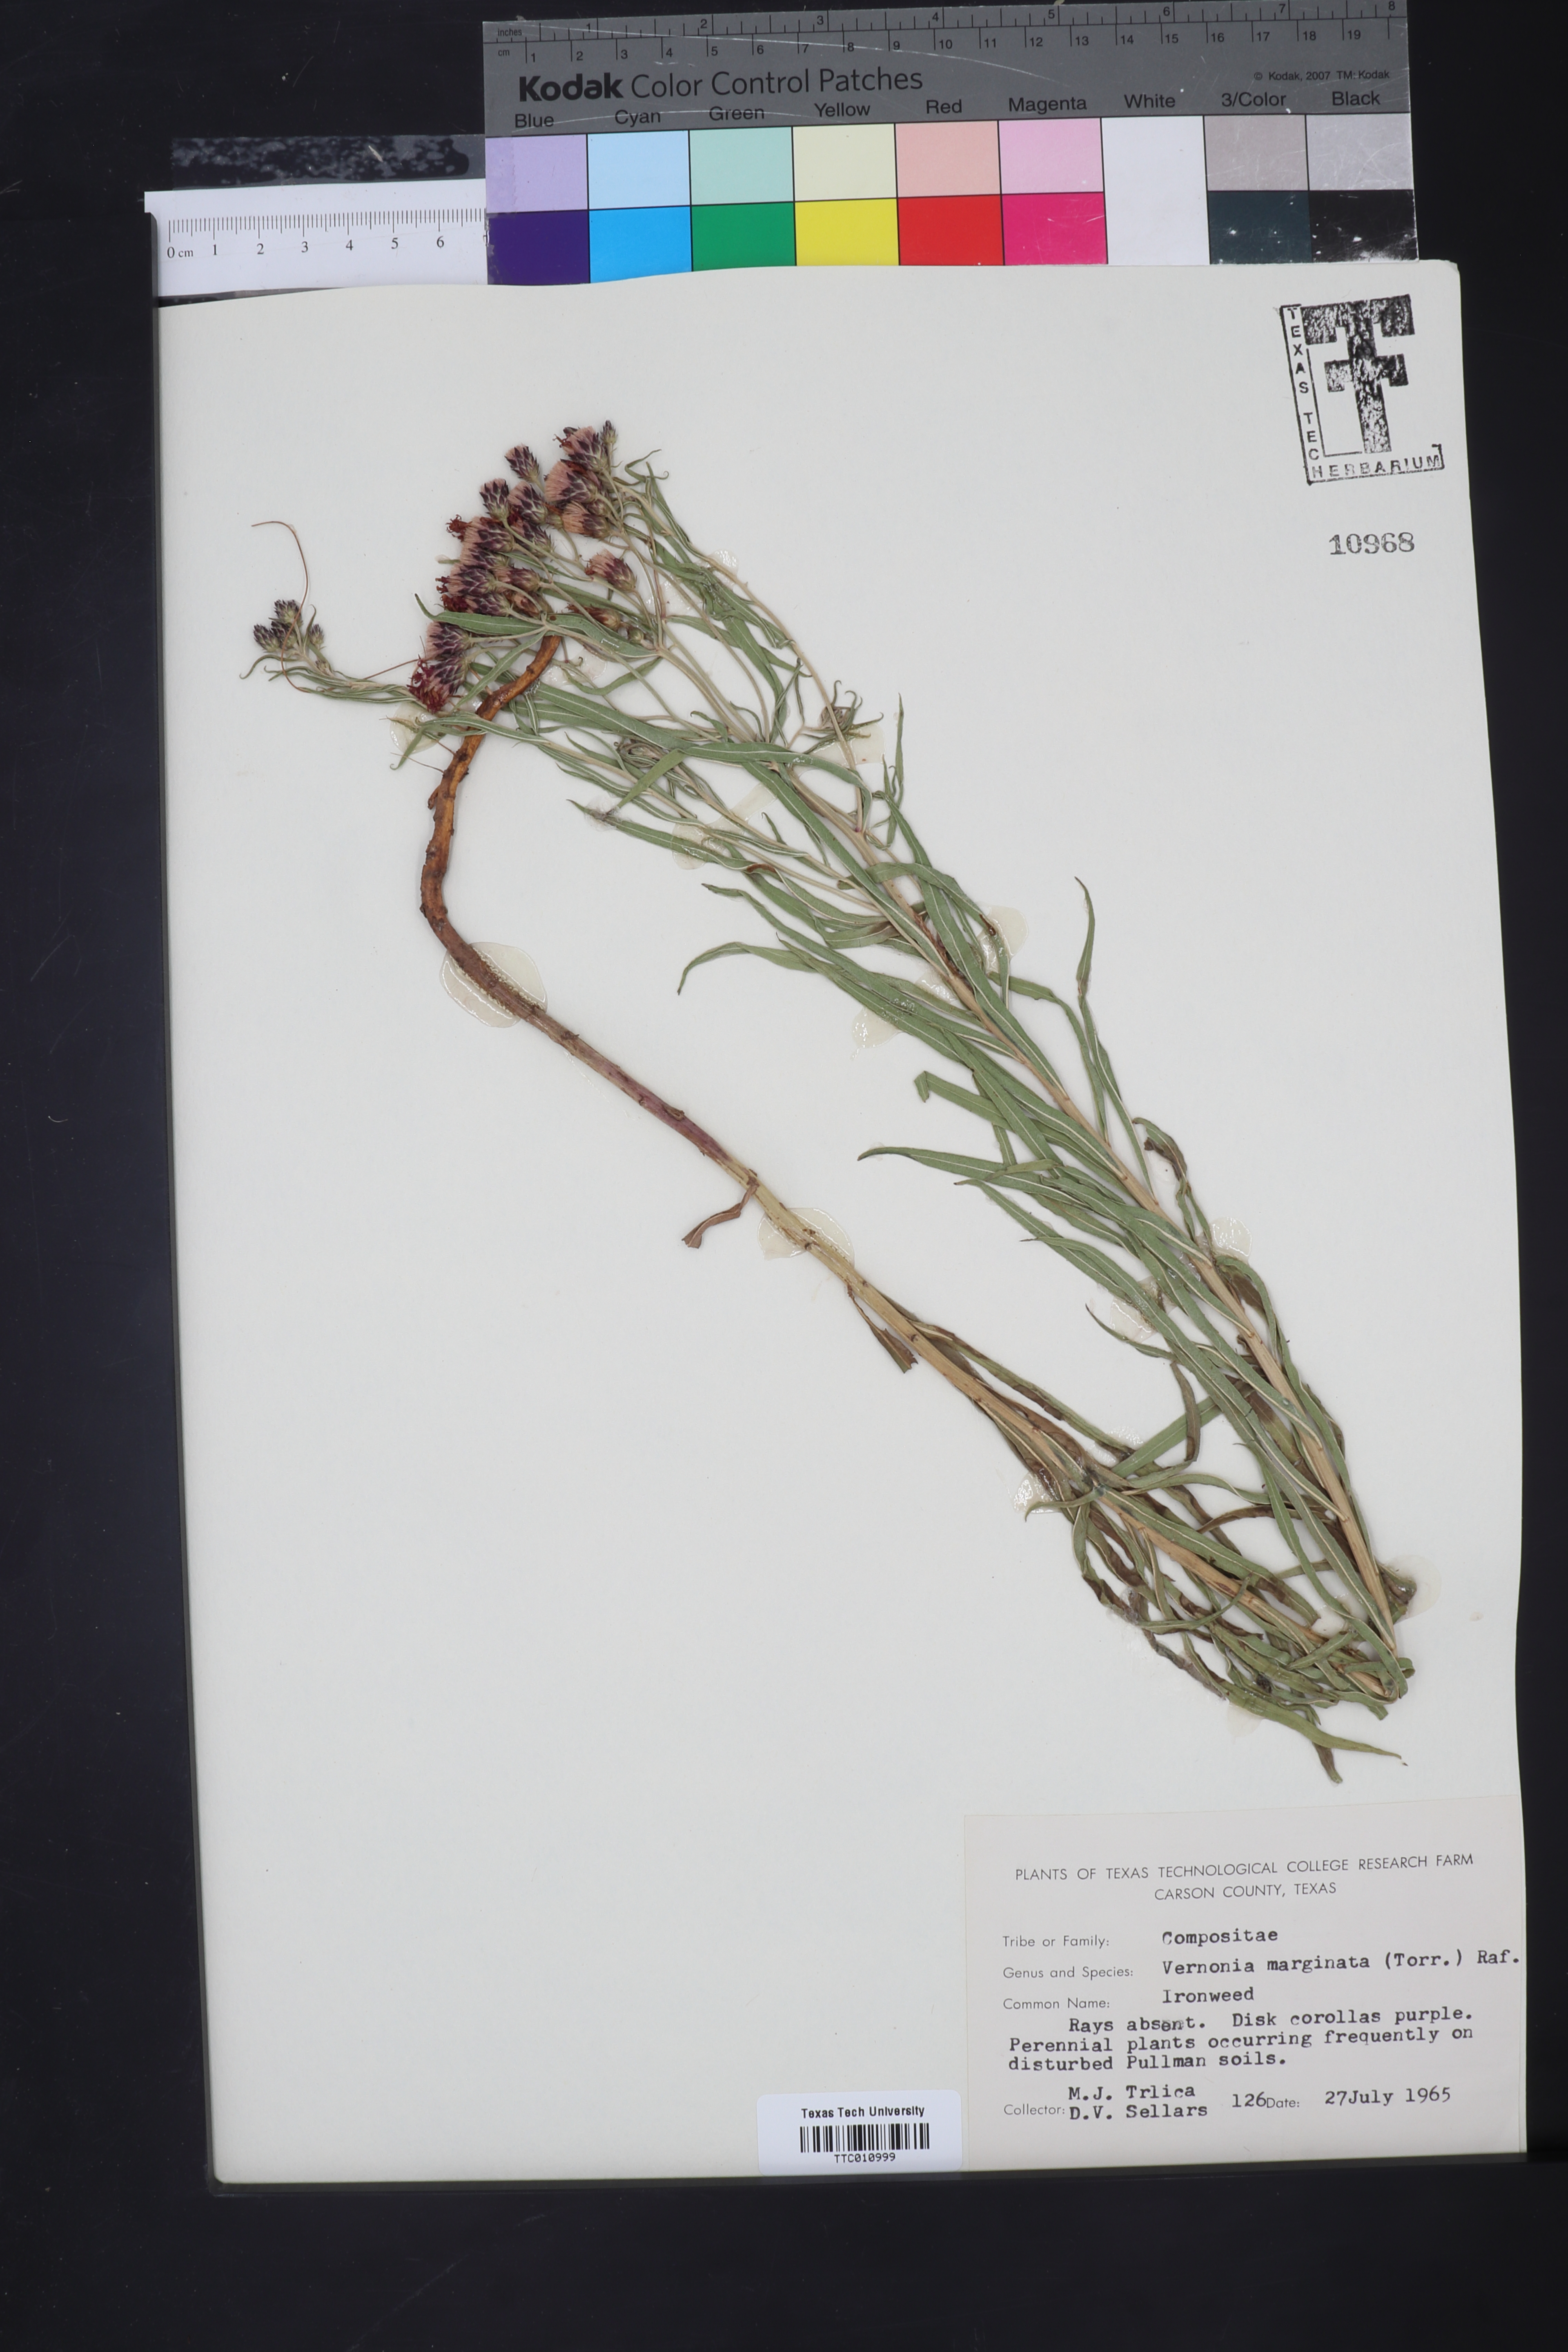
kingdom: Plantae
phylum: Tracheophyta
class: Magnoliopsida
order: Asterales
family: Asteraceae
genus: Vernonia
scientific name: Vernonia marginata
